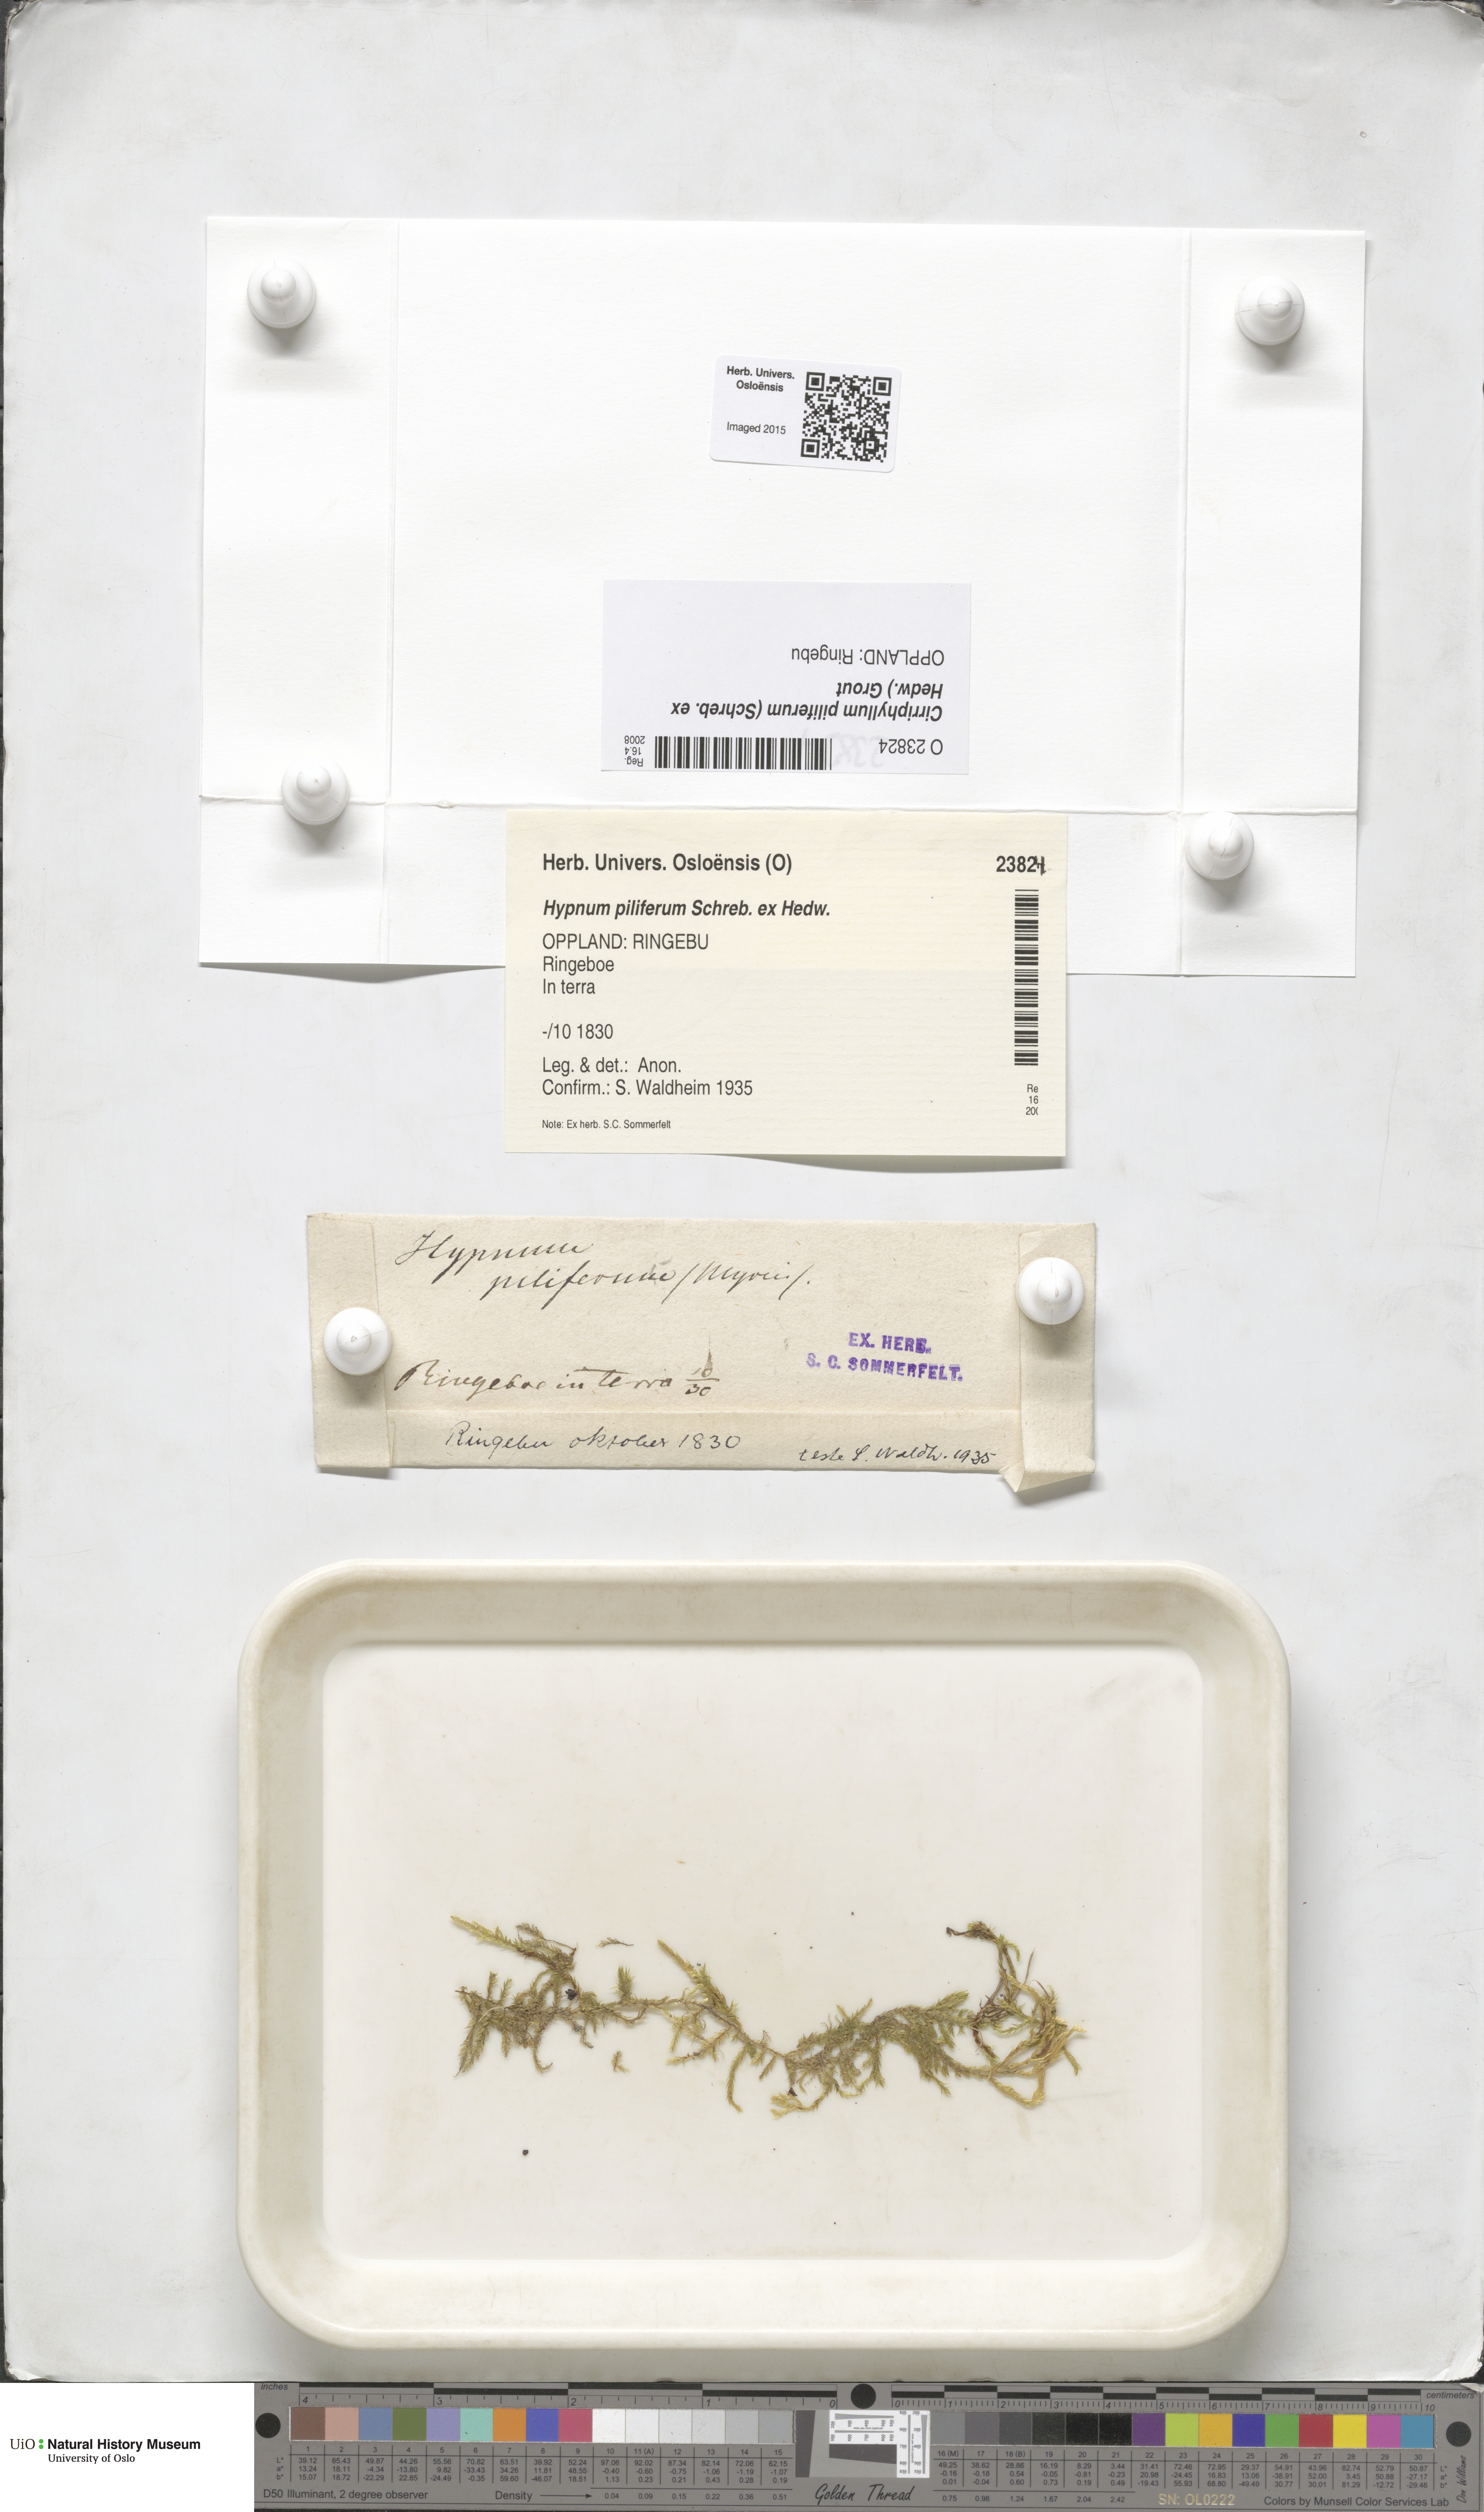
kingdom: Plantae
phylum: Bryophyta
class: Bryopsida
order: Hypnales
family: Brachytheciaceae
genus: Cirriphyllum
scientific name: Cirriphyllum piliferum
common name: Hair-pointed moss
